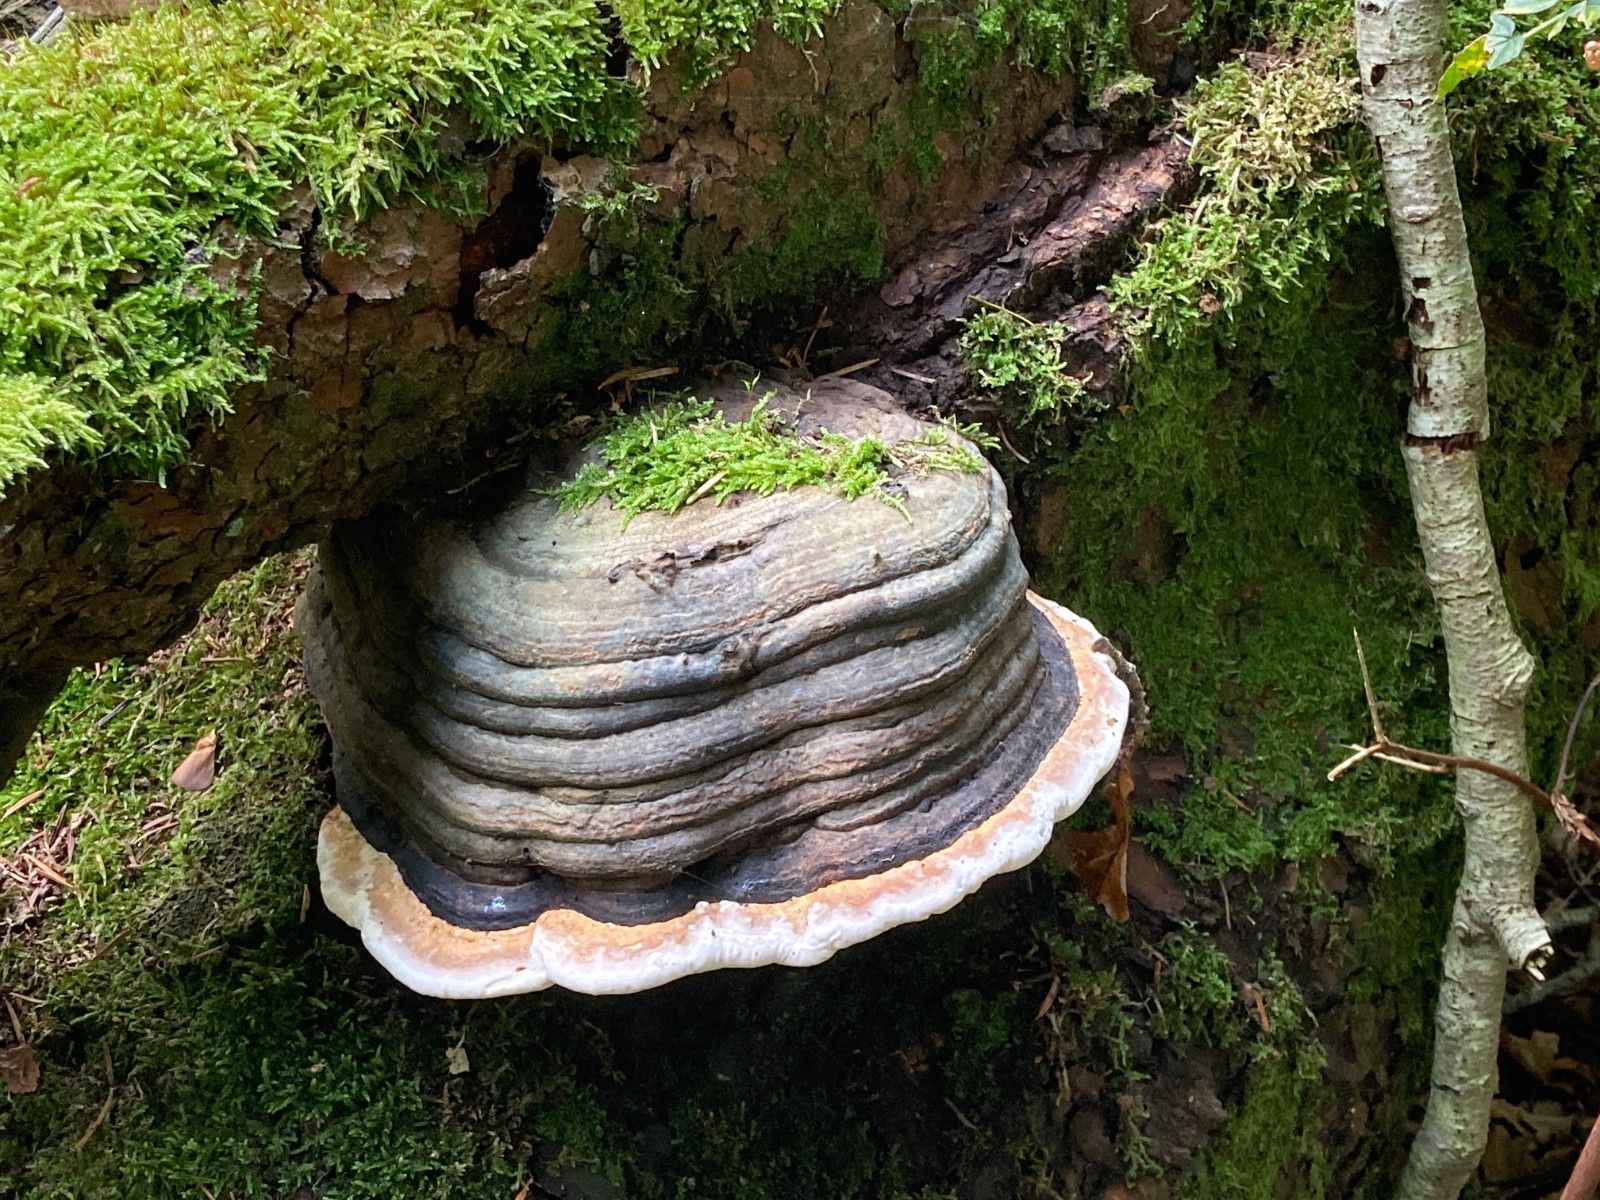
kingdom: Fungi
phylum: Basidiomycota
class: Agaricomycetes
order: Polyporales
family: Fomitopsidaceae
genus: Fomitopsis
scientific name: Fomitopsis pinicola
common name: randbæltet hovporesvamp
